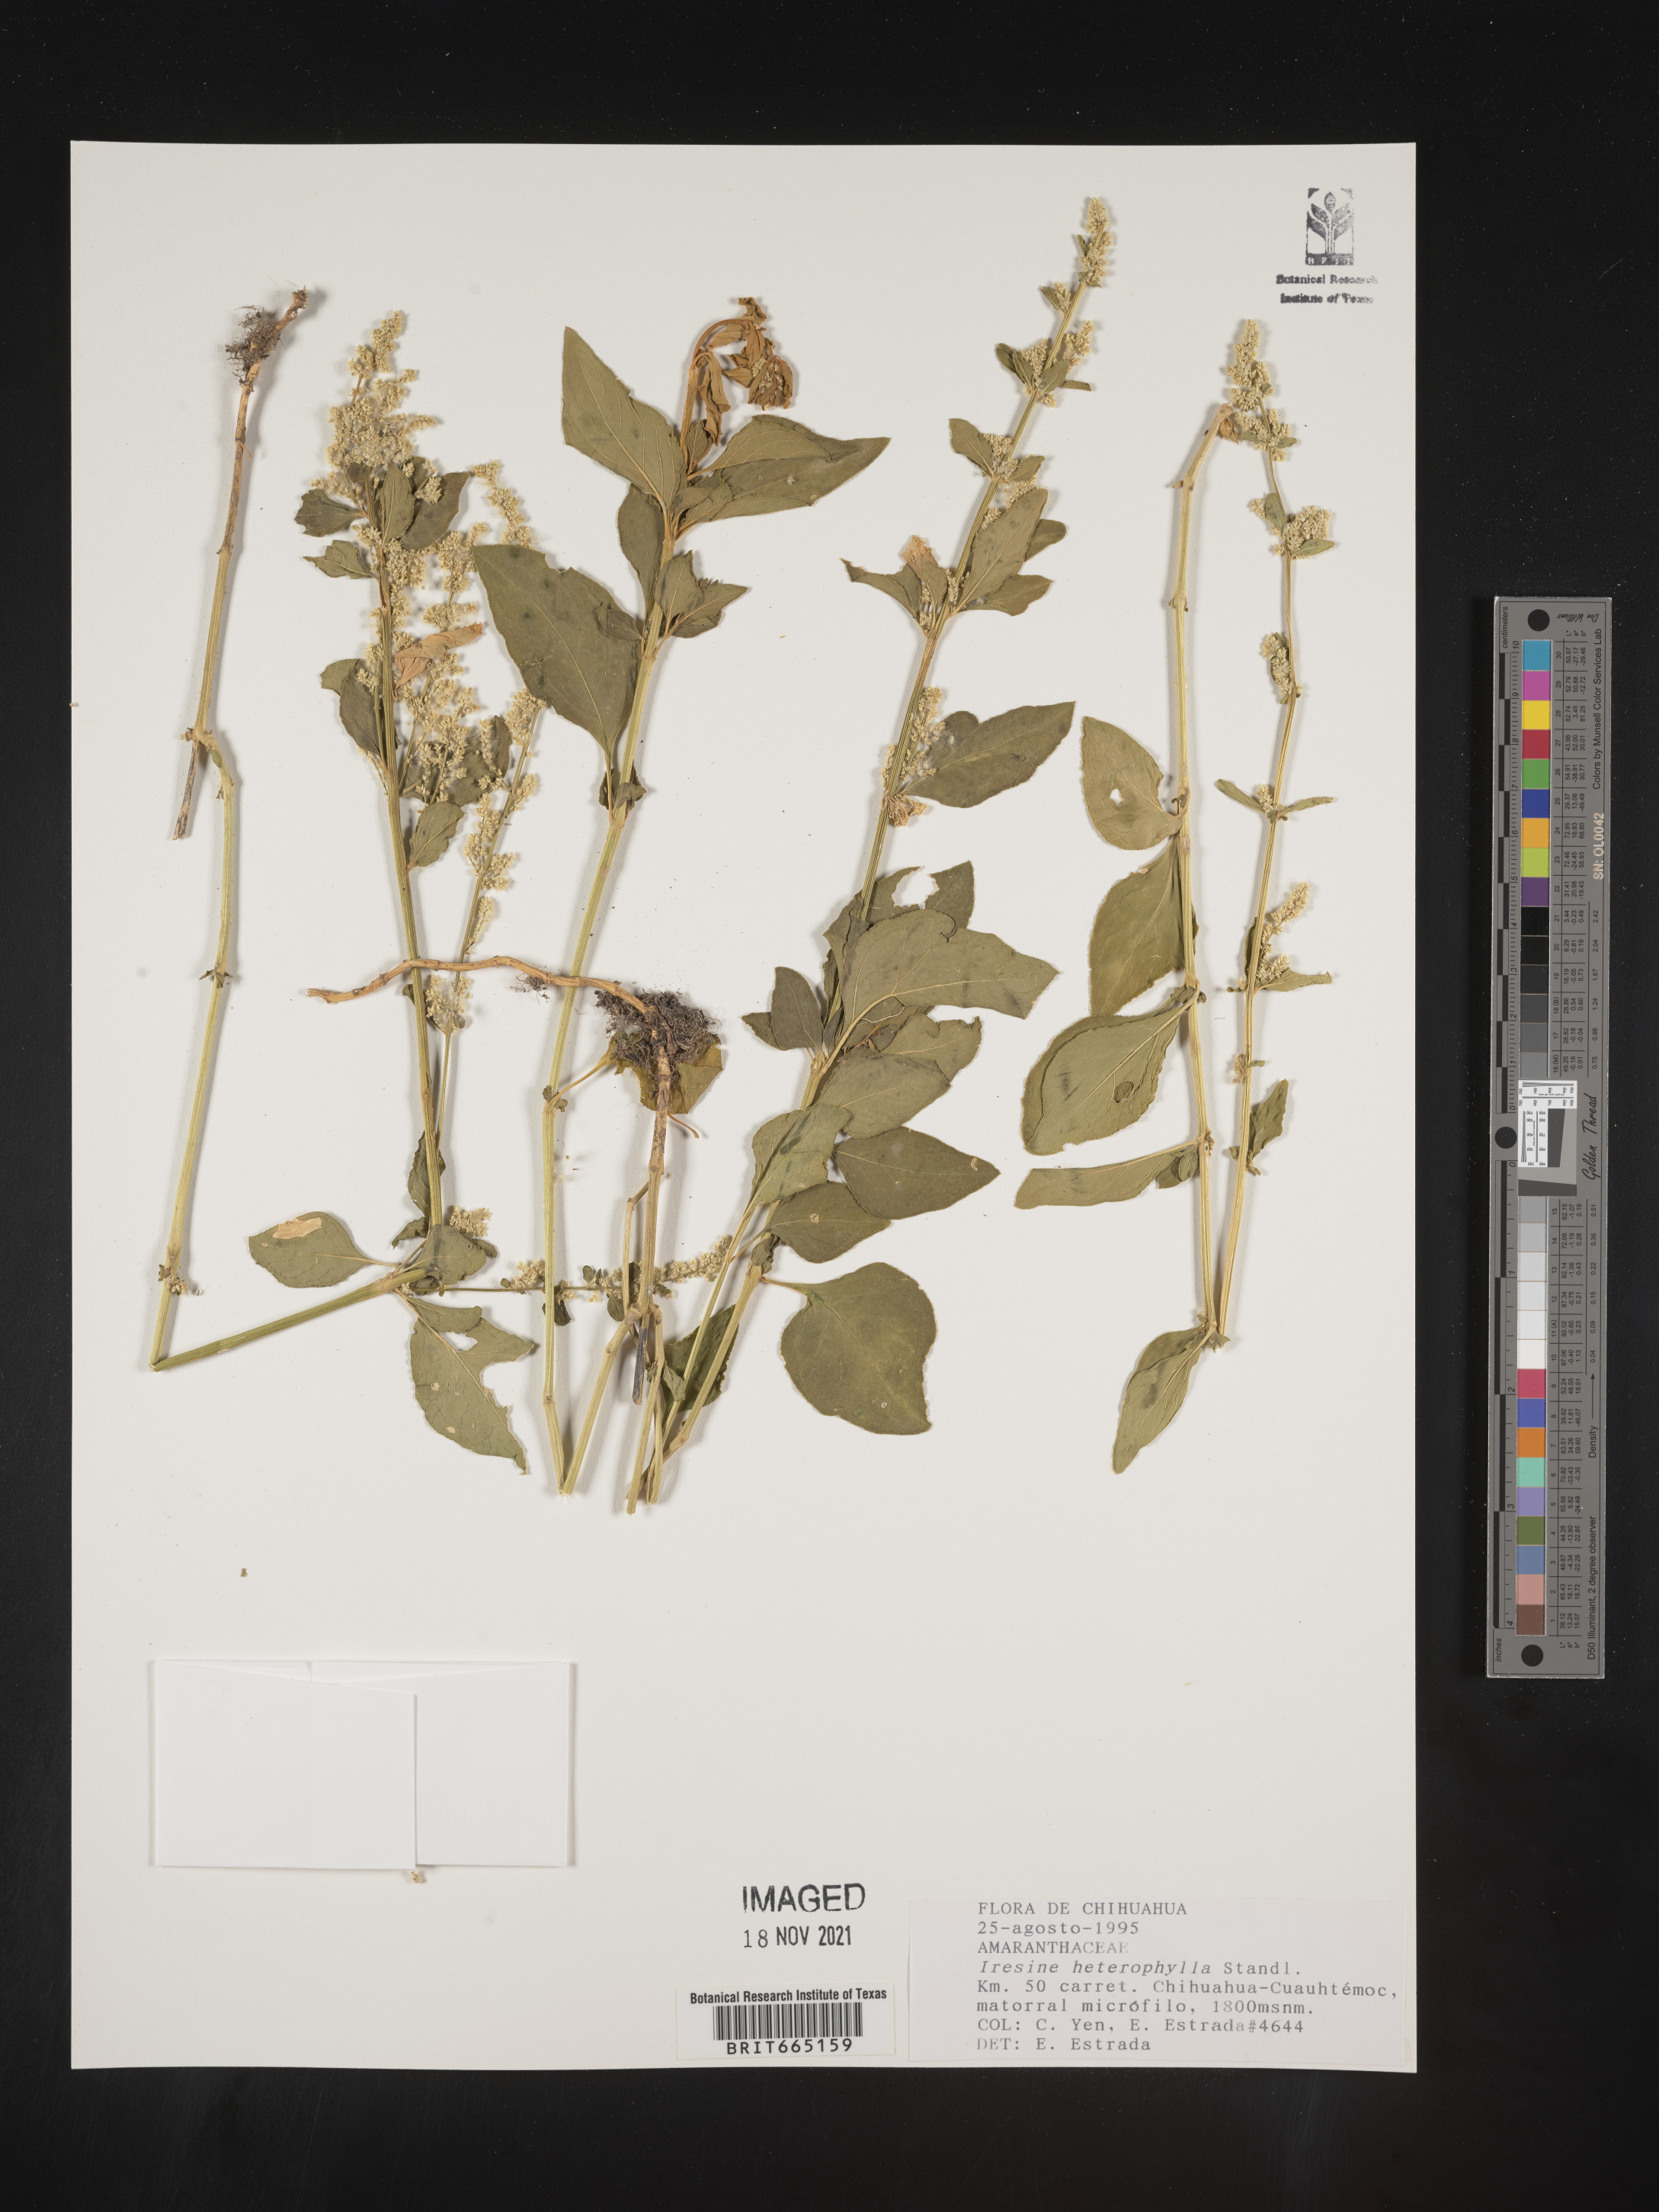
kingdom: Plantae
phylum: Tracheophyta
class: Magnoliopsida
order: Caryophyllales
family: Amaranthaceae
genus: Iresine
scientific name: Iresine
